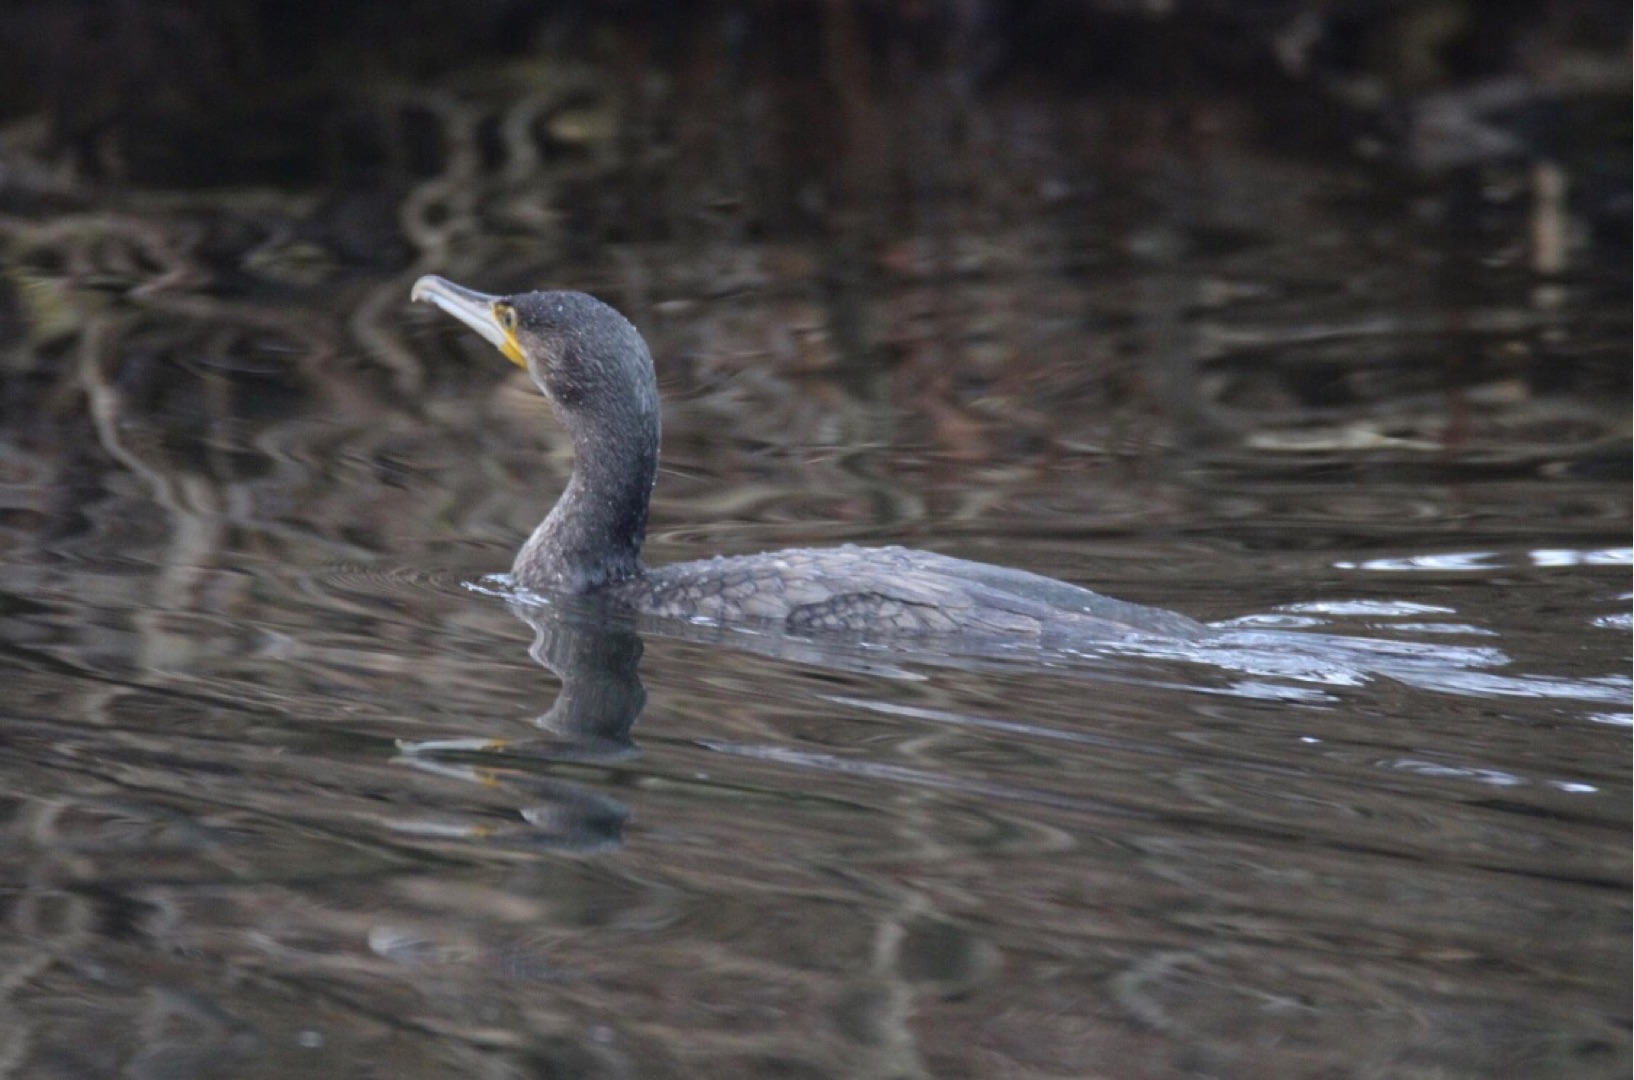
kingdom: Animalia
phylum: Chordata
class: Aves
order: Suliformes
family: Phalacrocoracidae
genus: Phalacrocorax
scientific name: Phalacrocorax carbo
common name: Skarv
